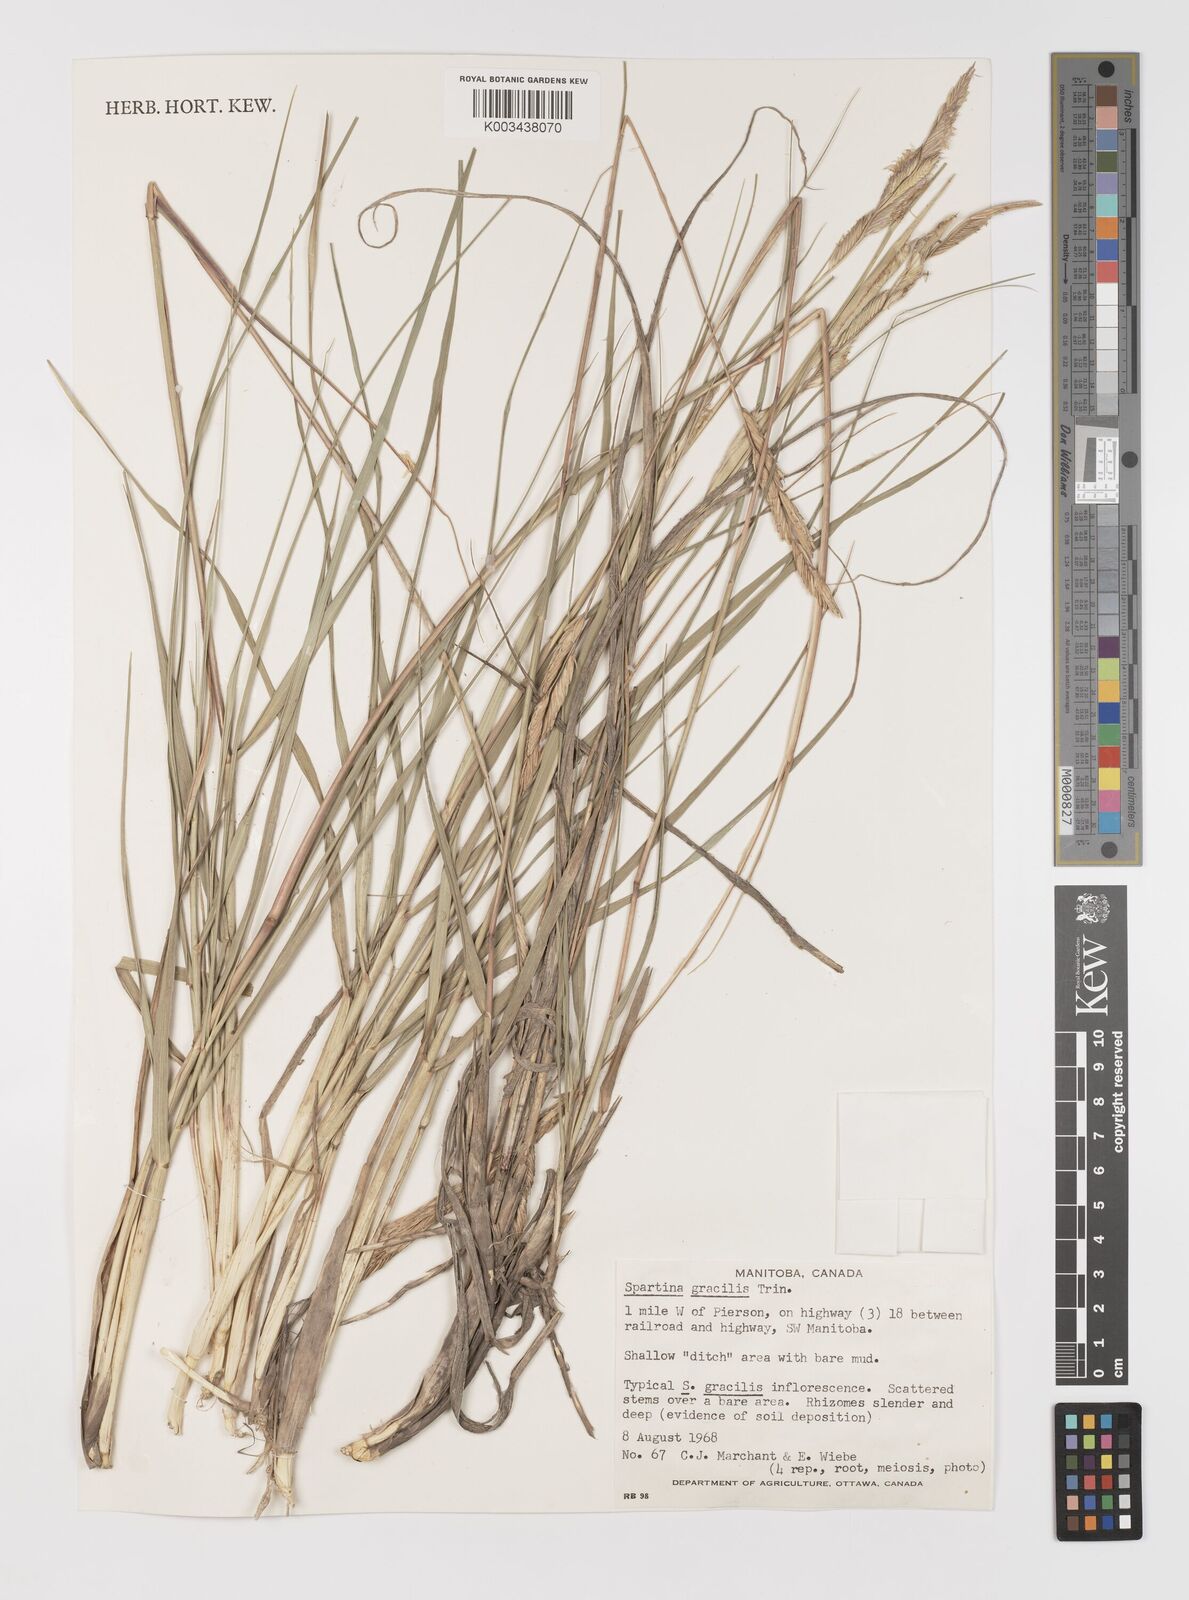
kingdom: Plantae
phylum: Tracheophyta
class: Liliopsida
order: Poales
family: Poaceae
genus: Sporobolus
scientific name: Sporobolus hookerianus
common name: Alkali cordgrass
